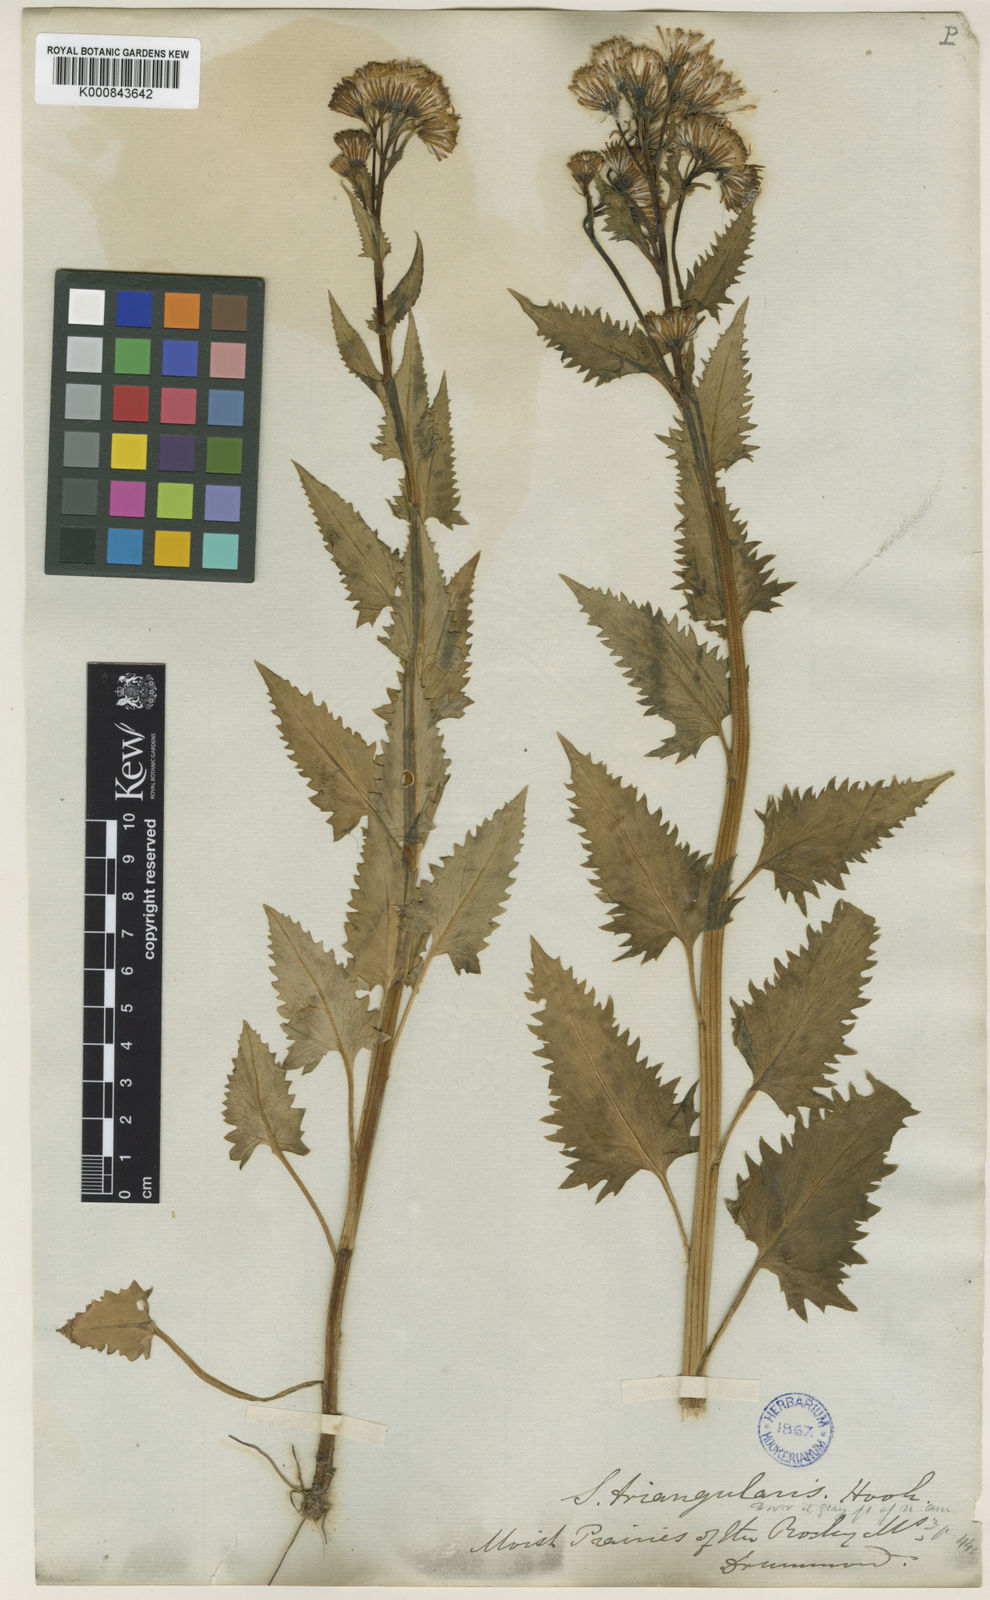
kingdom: Plantae
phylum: Tracheophyta
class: Magnoliopsida
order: Asterales
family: Asteraceae
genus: Senecio
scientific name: Senecio triangularis
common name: Arrowleaf butterweed
